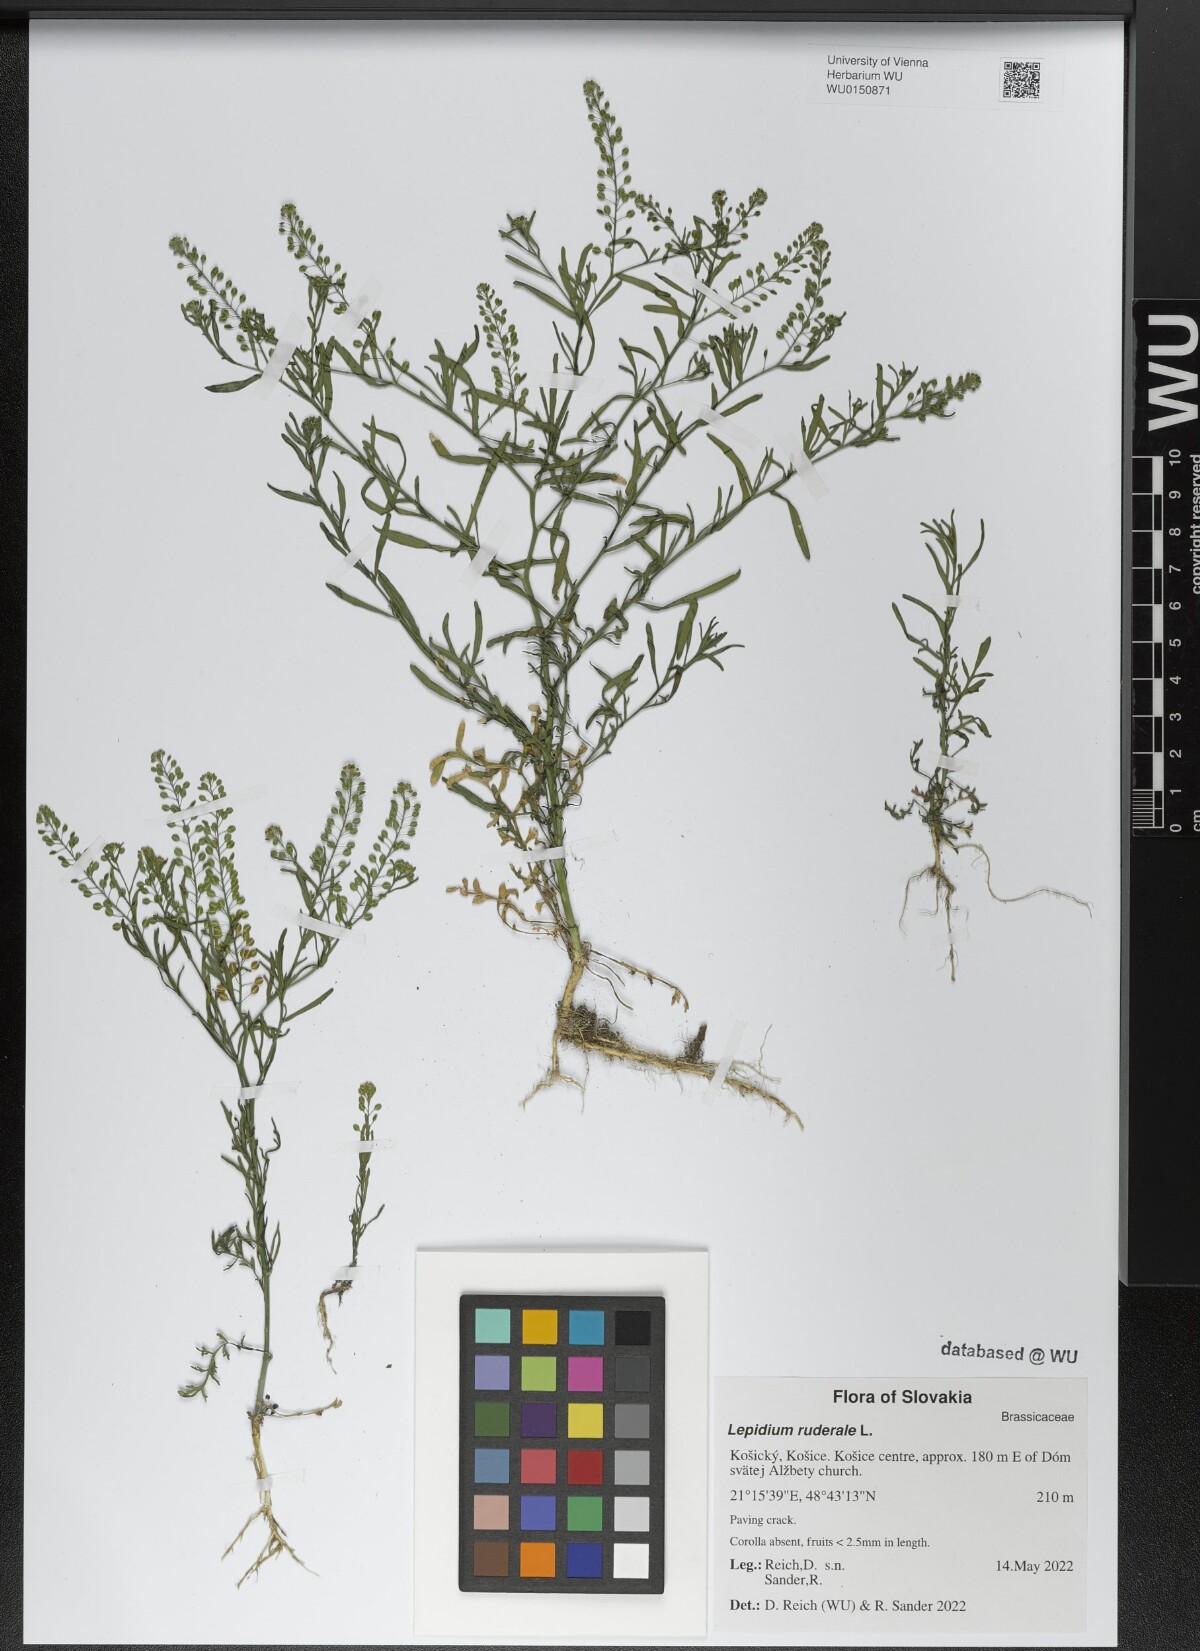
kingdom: Plantae
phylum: Tracheophyta
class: Magnoliopsida
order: Brassicales
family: Brassicaceae
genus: Lepidium
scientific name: Lepidium ruderale
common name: Narrow-leaved pepperwort
